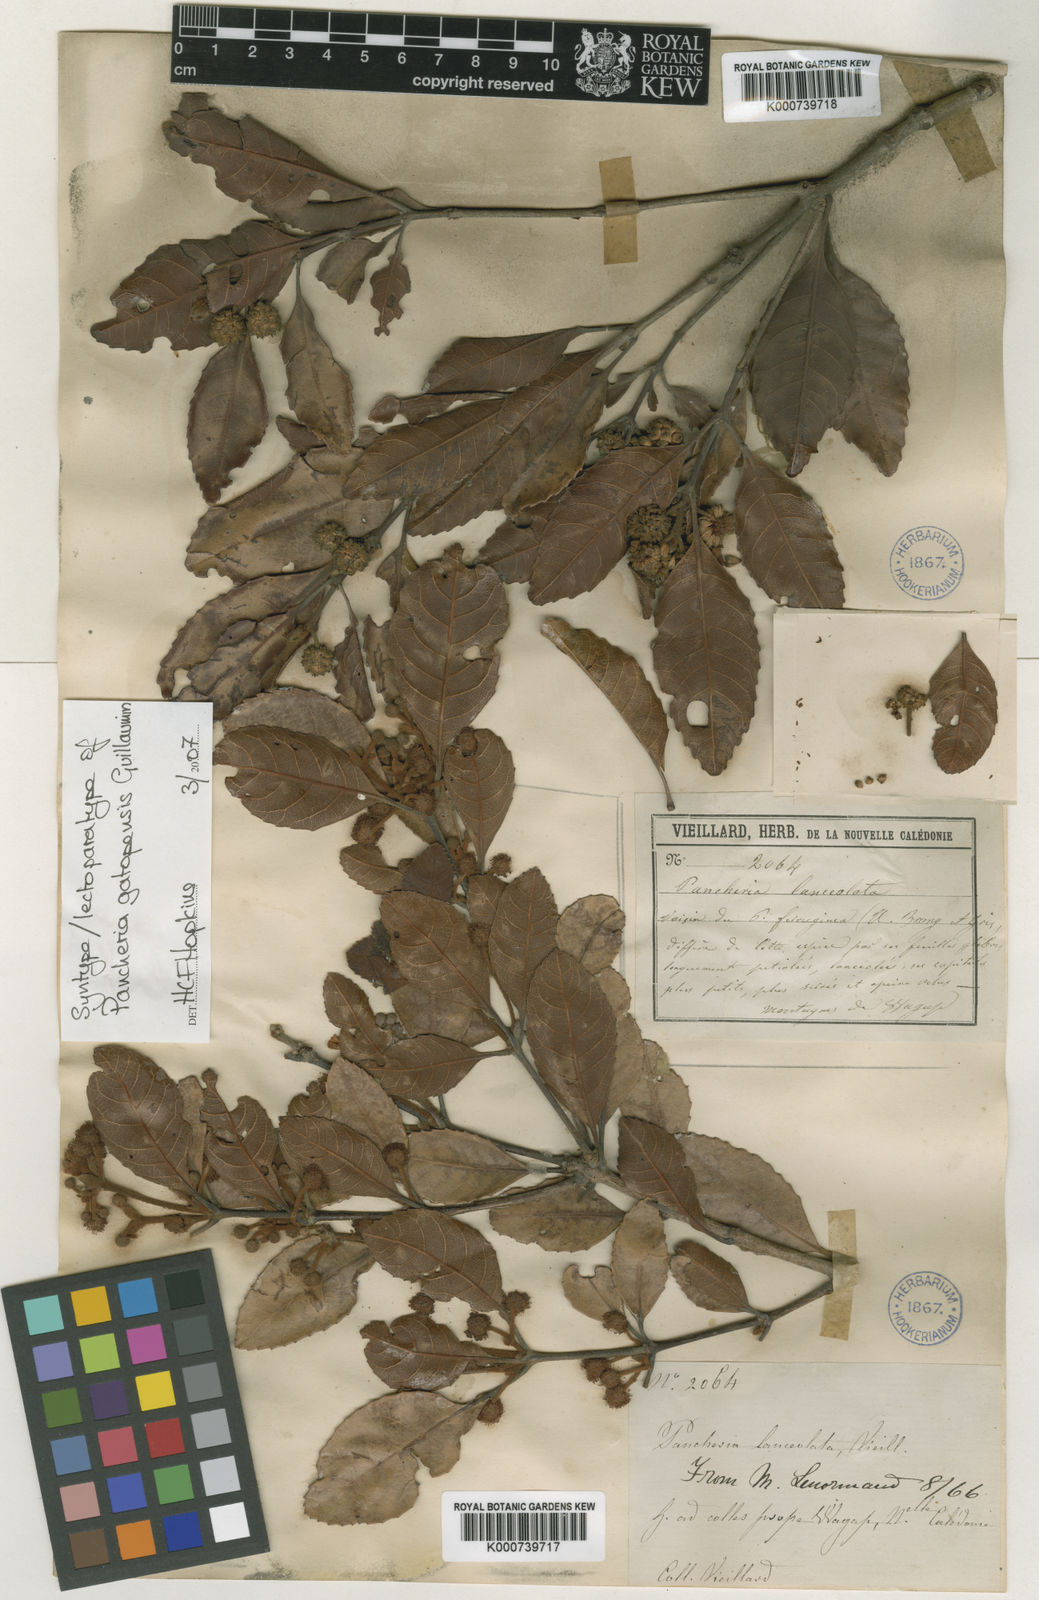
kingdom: Plantae
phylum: Tracheophyta
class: Magnoliopsida
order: Oxalidales
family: Cunoniaceae
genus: Pancheria
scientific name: Pancheria gatopensis
